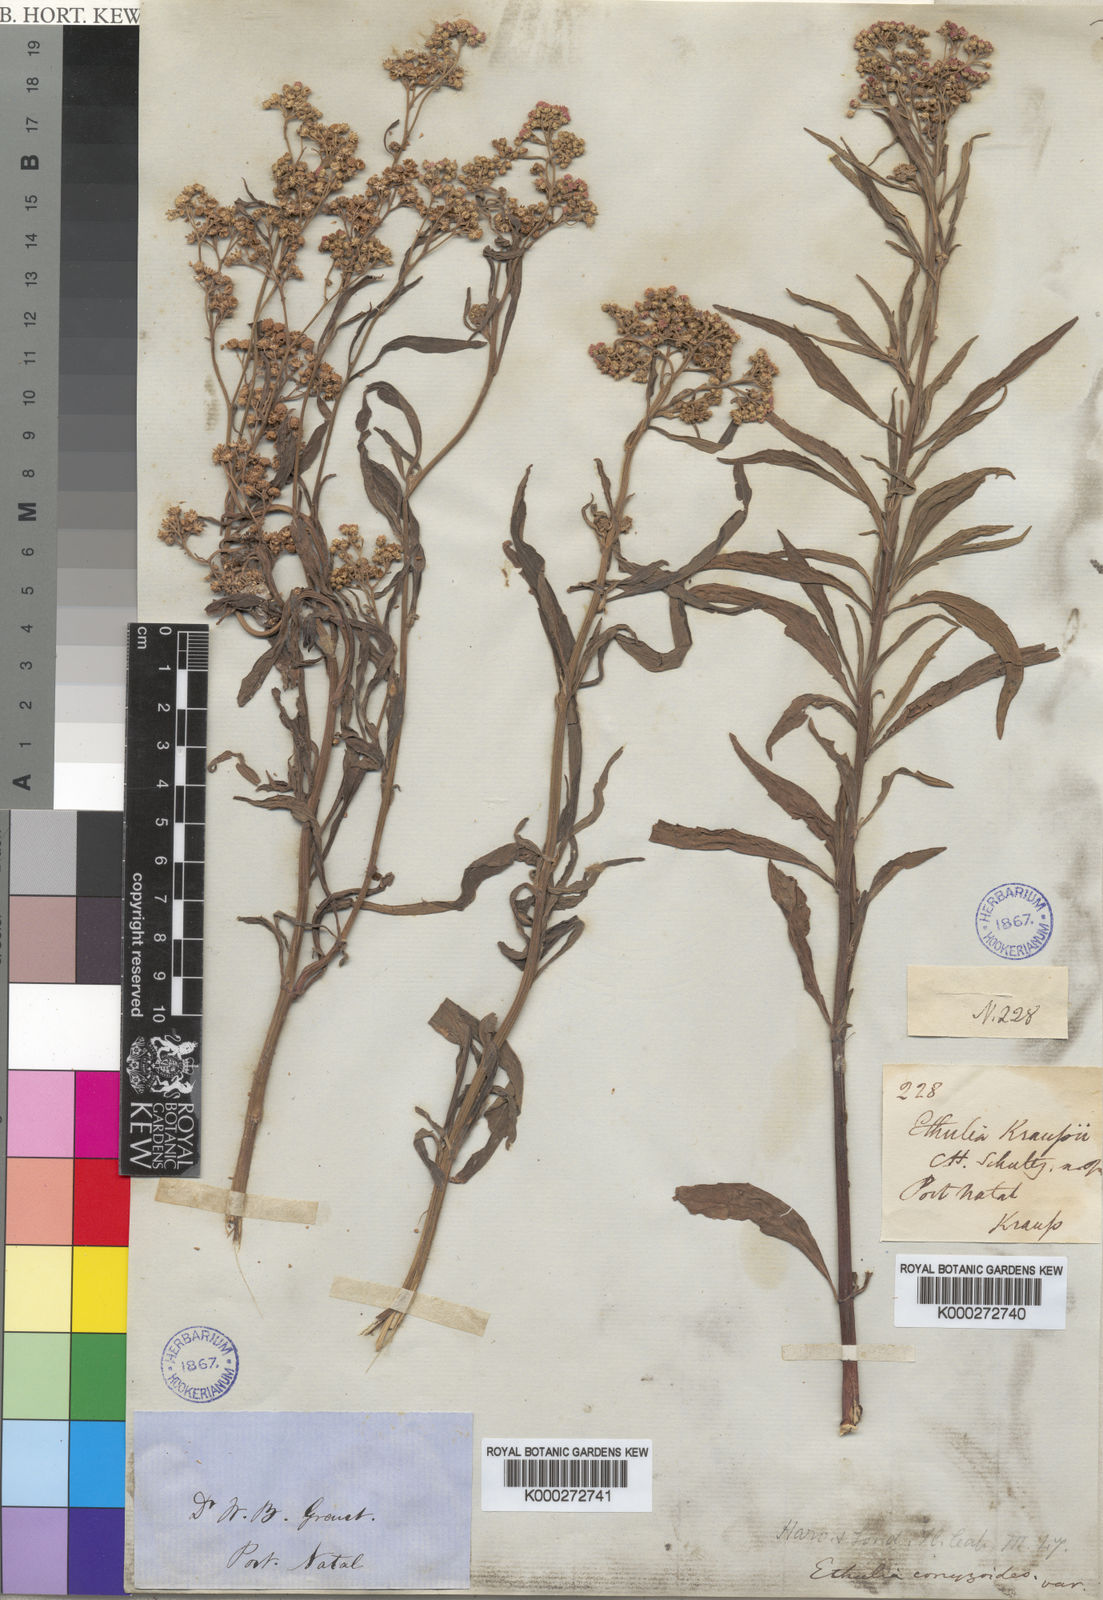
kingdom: Plantae
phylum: Tracheophyta
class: Magnoliopsida
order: Asterales
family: Asteraceae
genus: Ethulia
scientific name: Ethulia conyzoides
